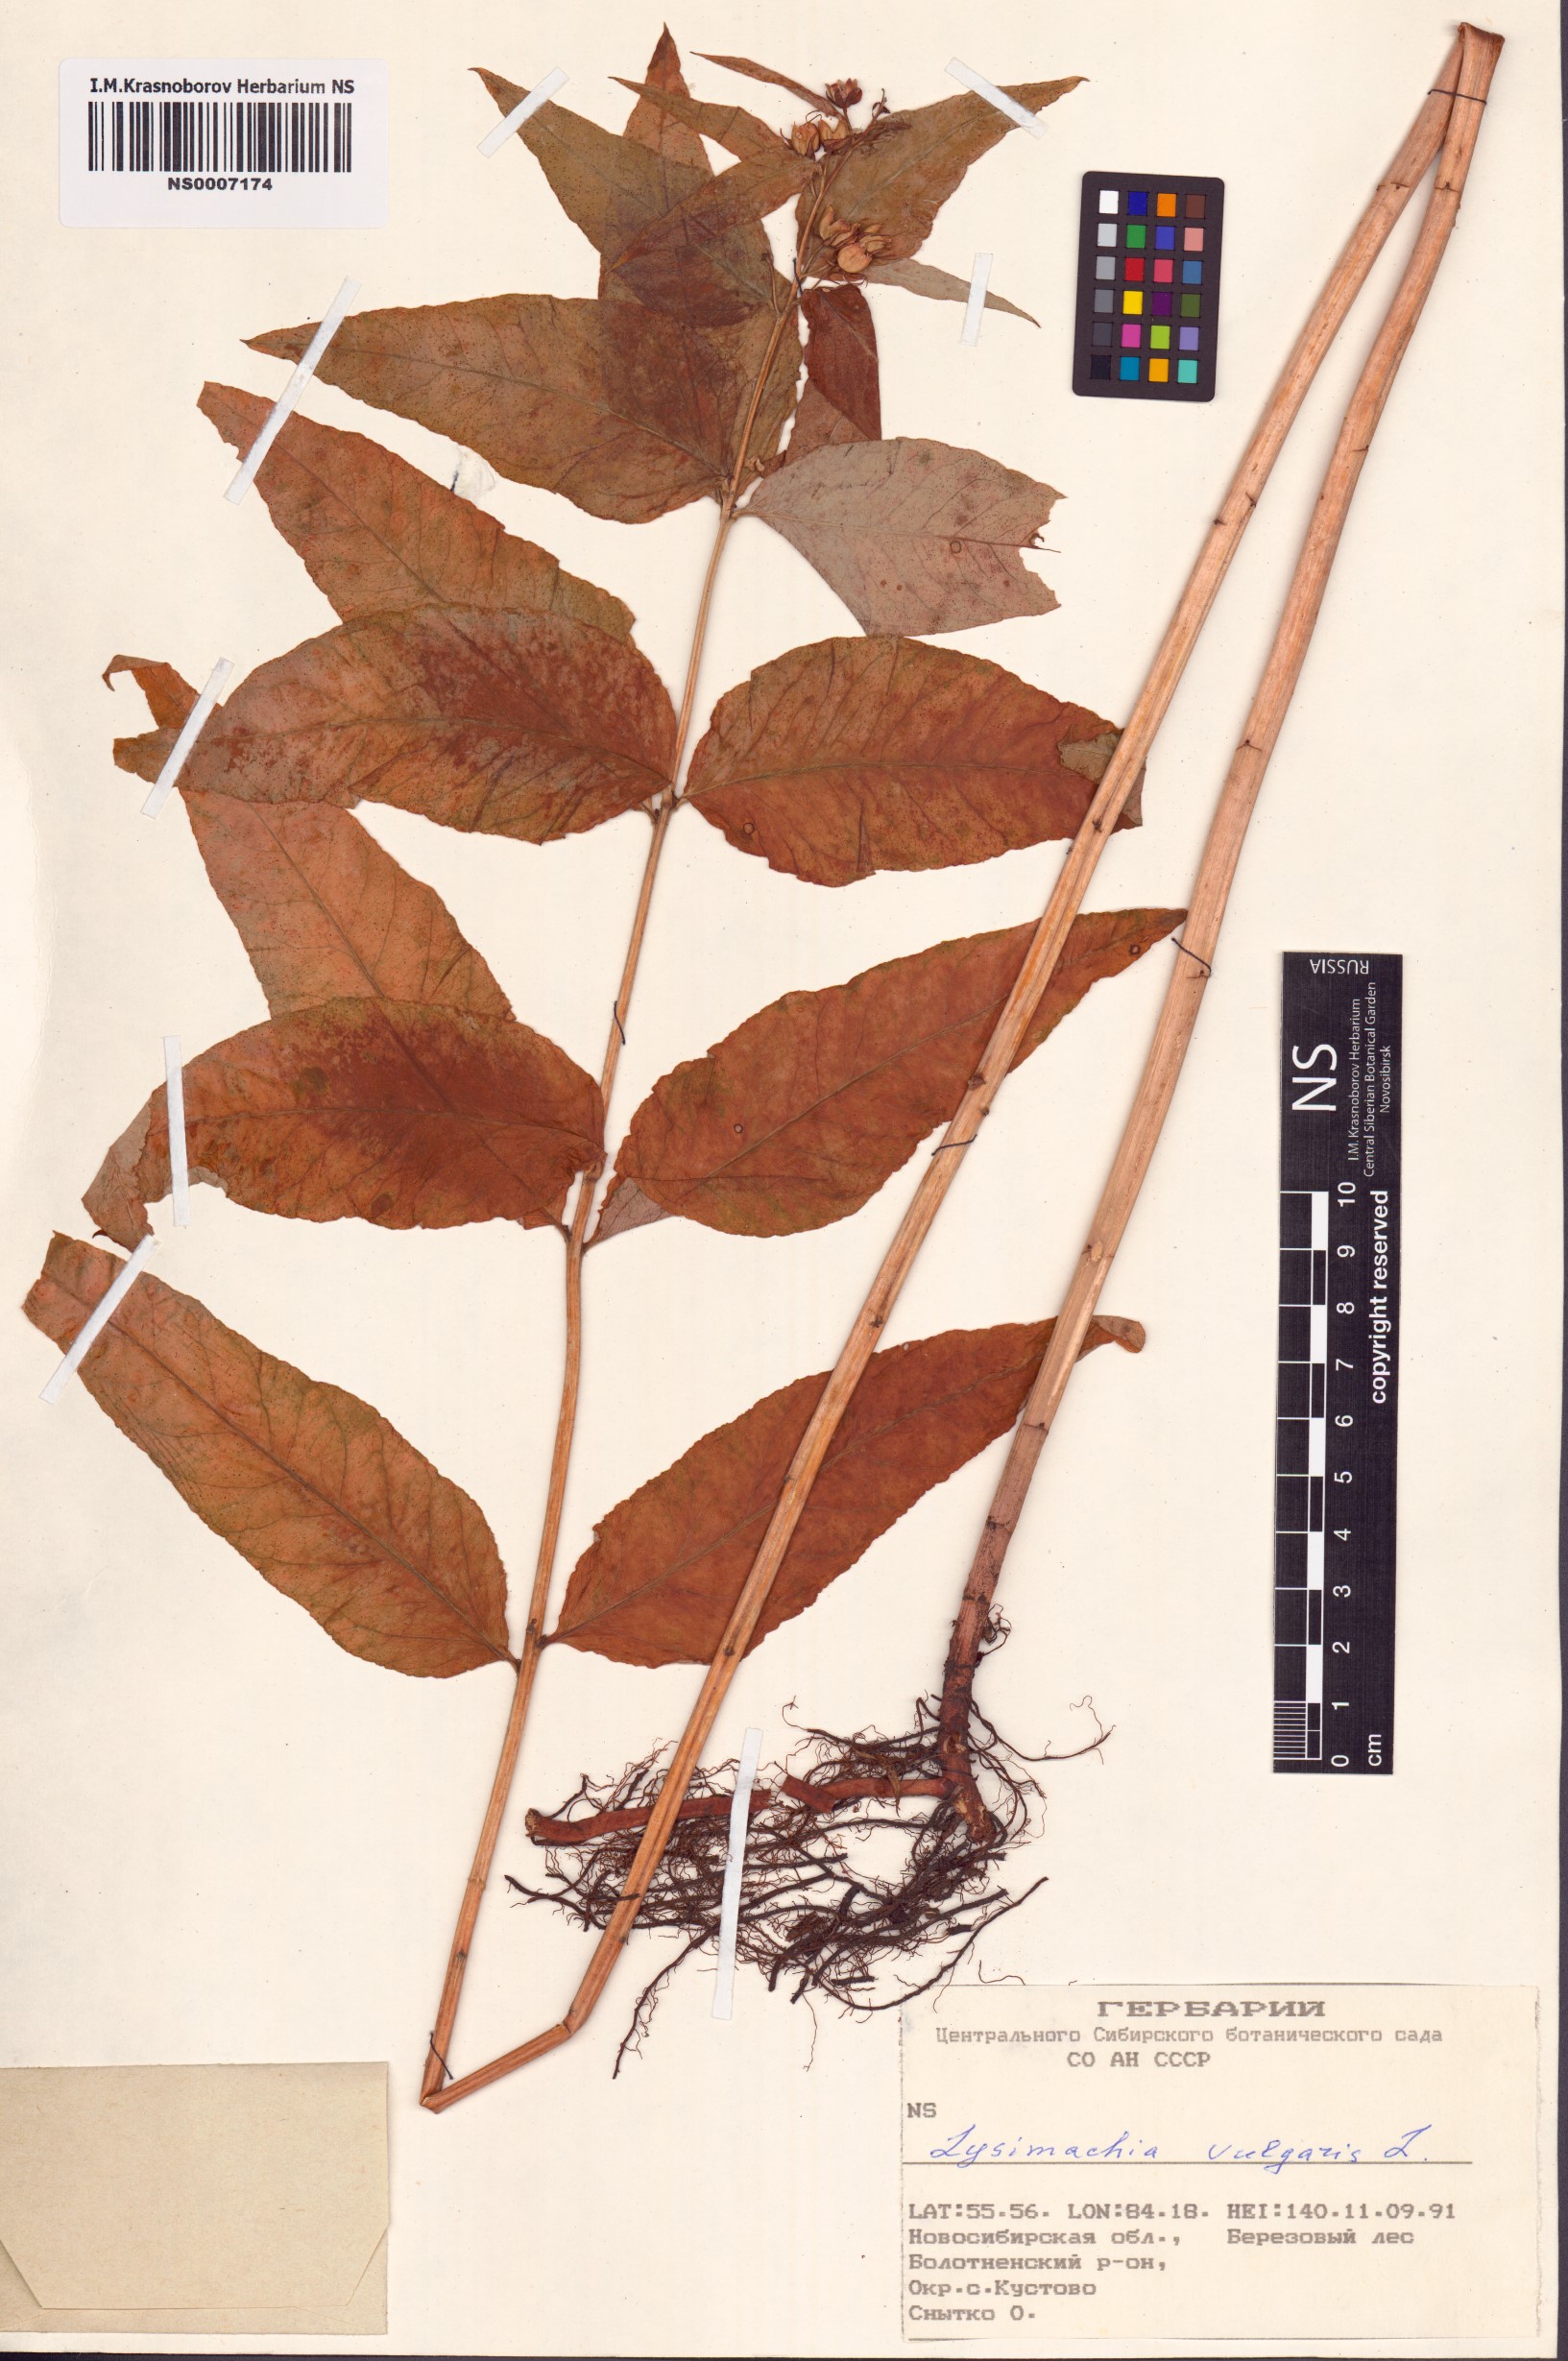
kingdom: Plantae
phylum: Tracheophyta
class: Magnoliopsida
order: Ericales
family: Primulaceae
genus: Lysimachia
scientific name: Lysimachia vulgaris
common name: Yellow loosestrife
